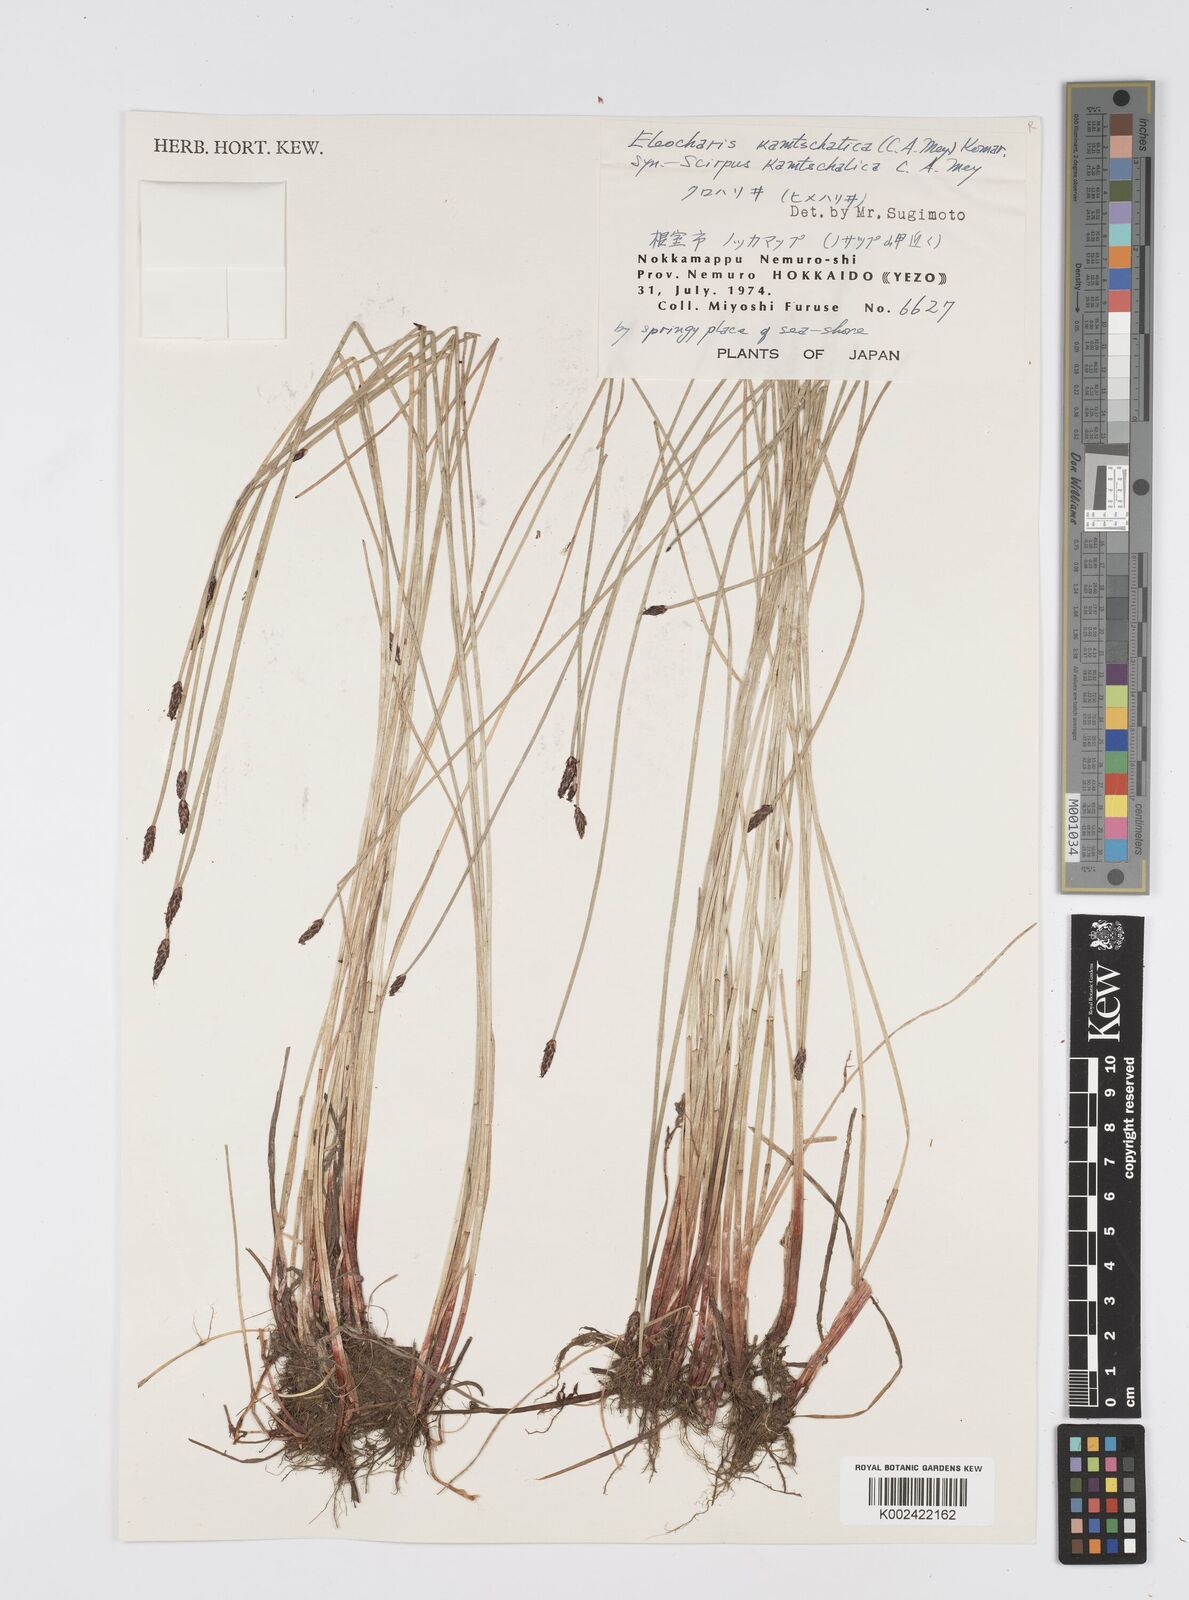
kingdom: Plantae
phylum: Tracheophyta
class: Liliopsida
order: Poales
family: Cyperaceae
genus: Eleocharis
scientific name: Eleocharis kamtschatica
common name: Kamchatka spikerush
